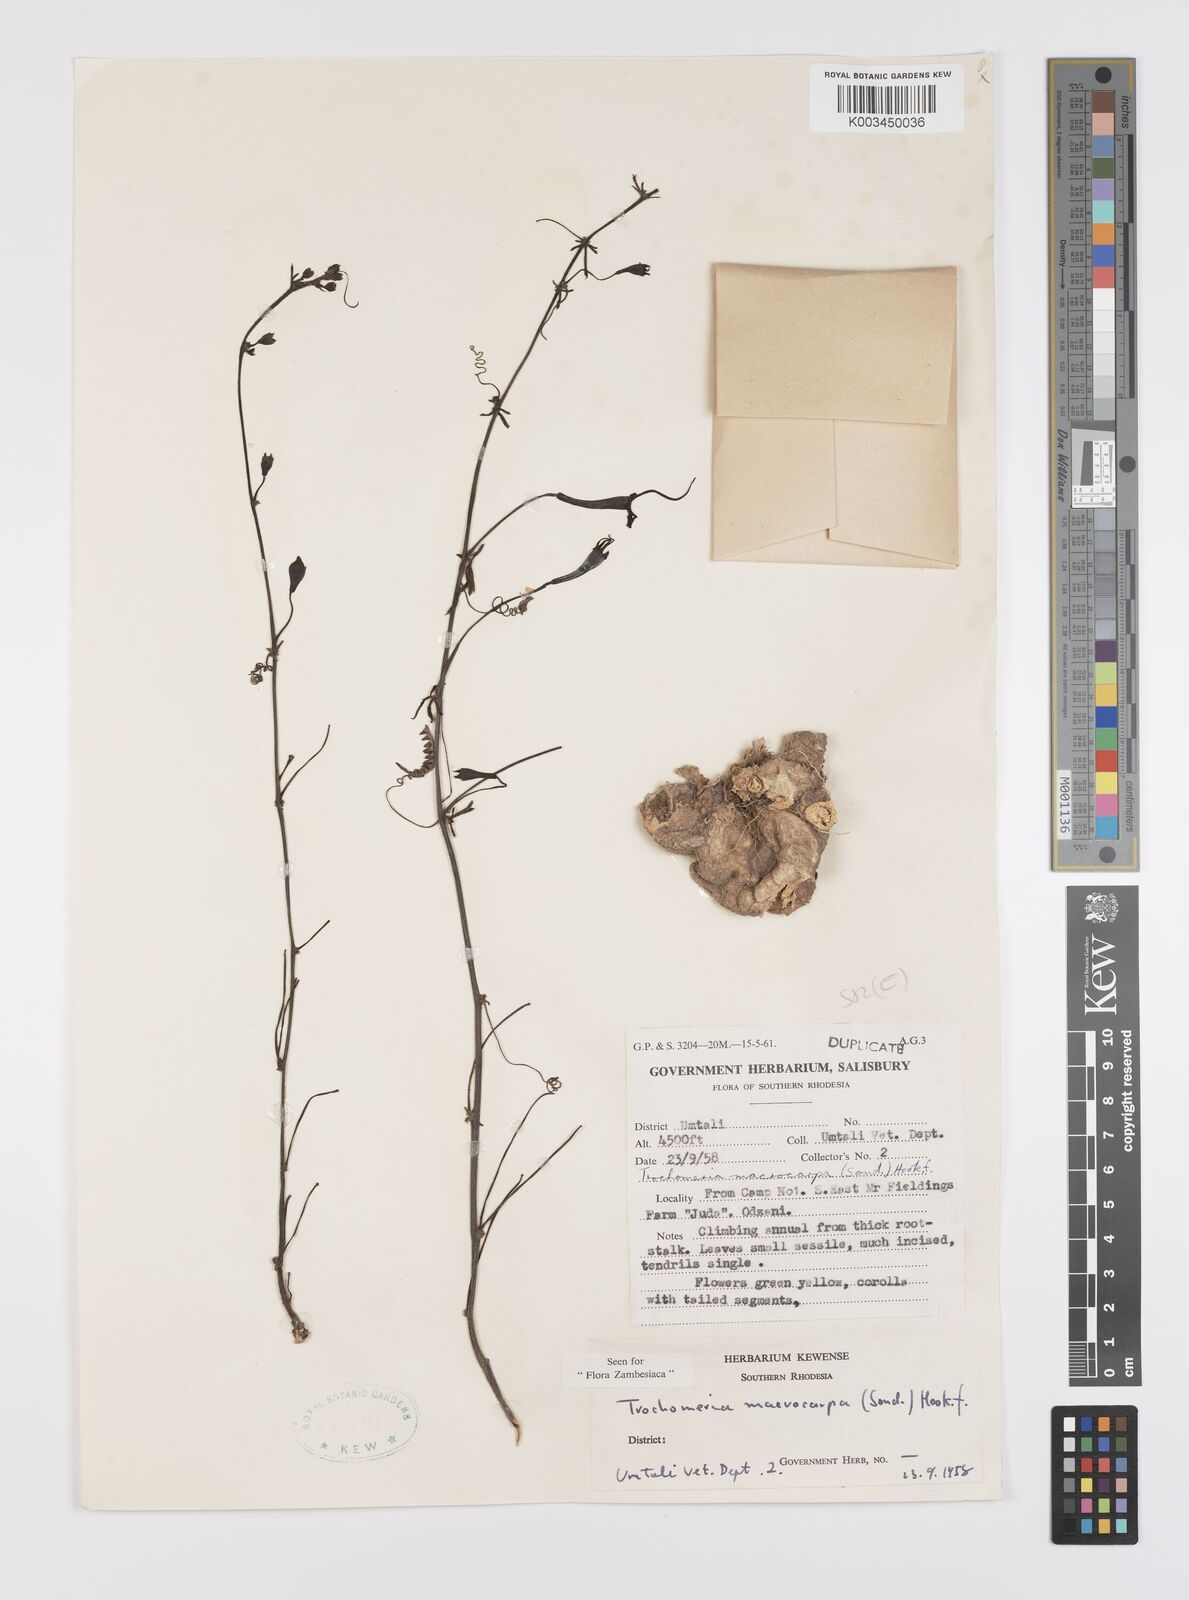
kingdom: Plantae
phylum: Tracheophyta
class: Magnoliopsida
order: Cucurbitales
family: Cucurbitaceae
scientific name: Cucurbitaceae
